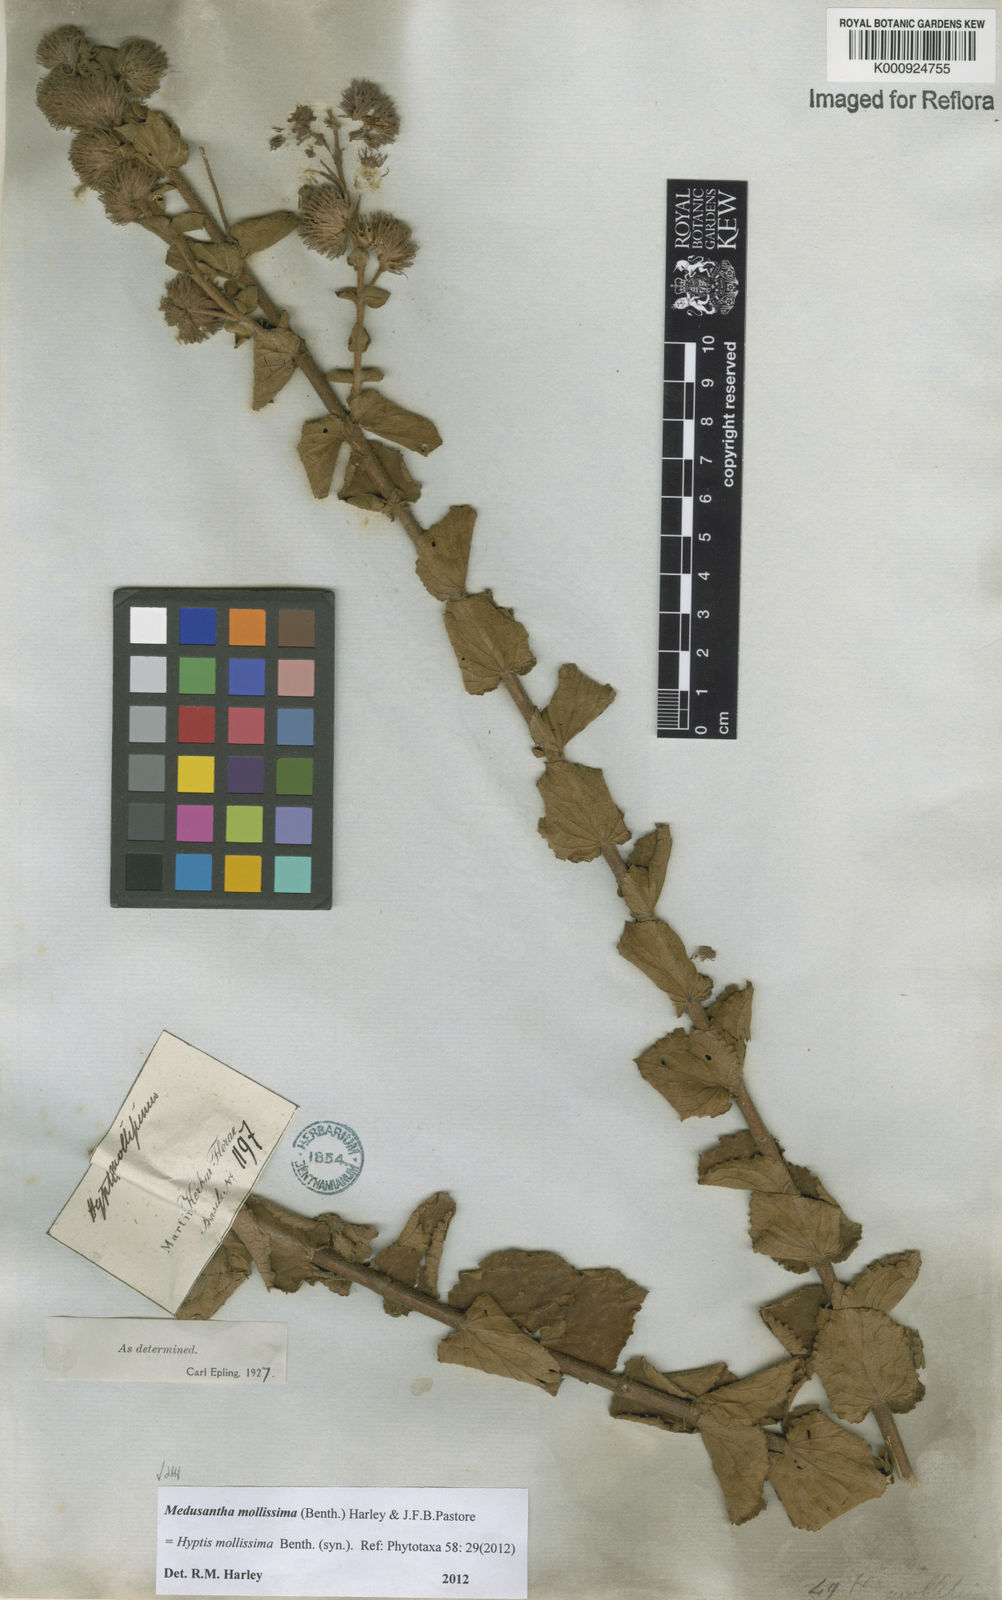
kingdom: Plantae
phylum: Tracheophyta
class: Magnoliopsida
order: Lamiales
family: Lamiaceae
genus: Medusantha
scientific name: Medusantha mollissima
